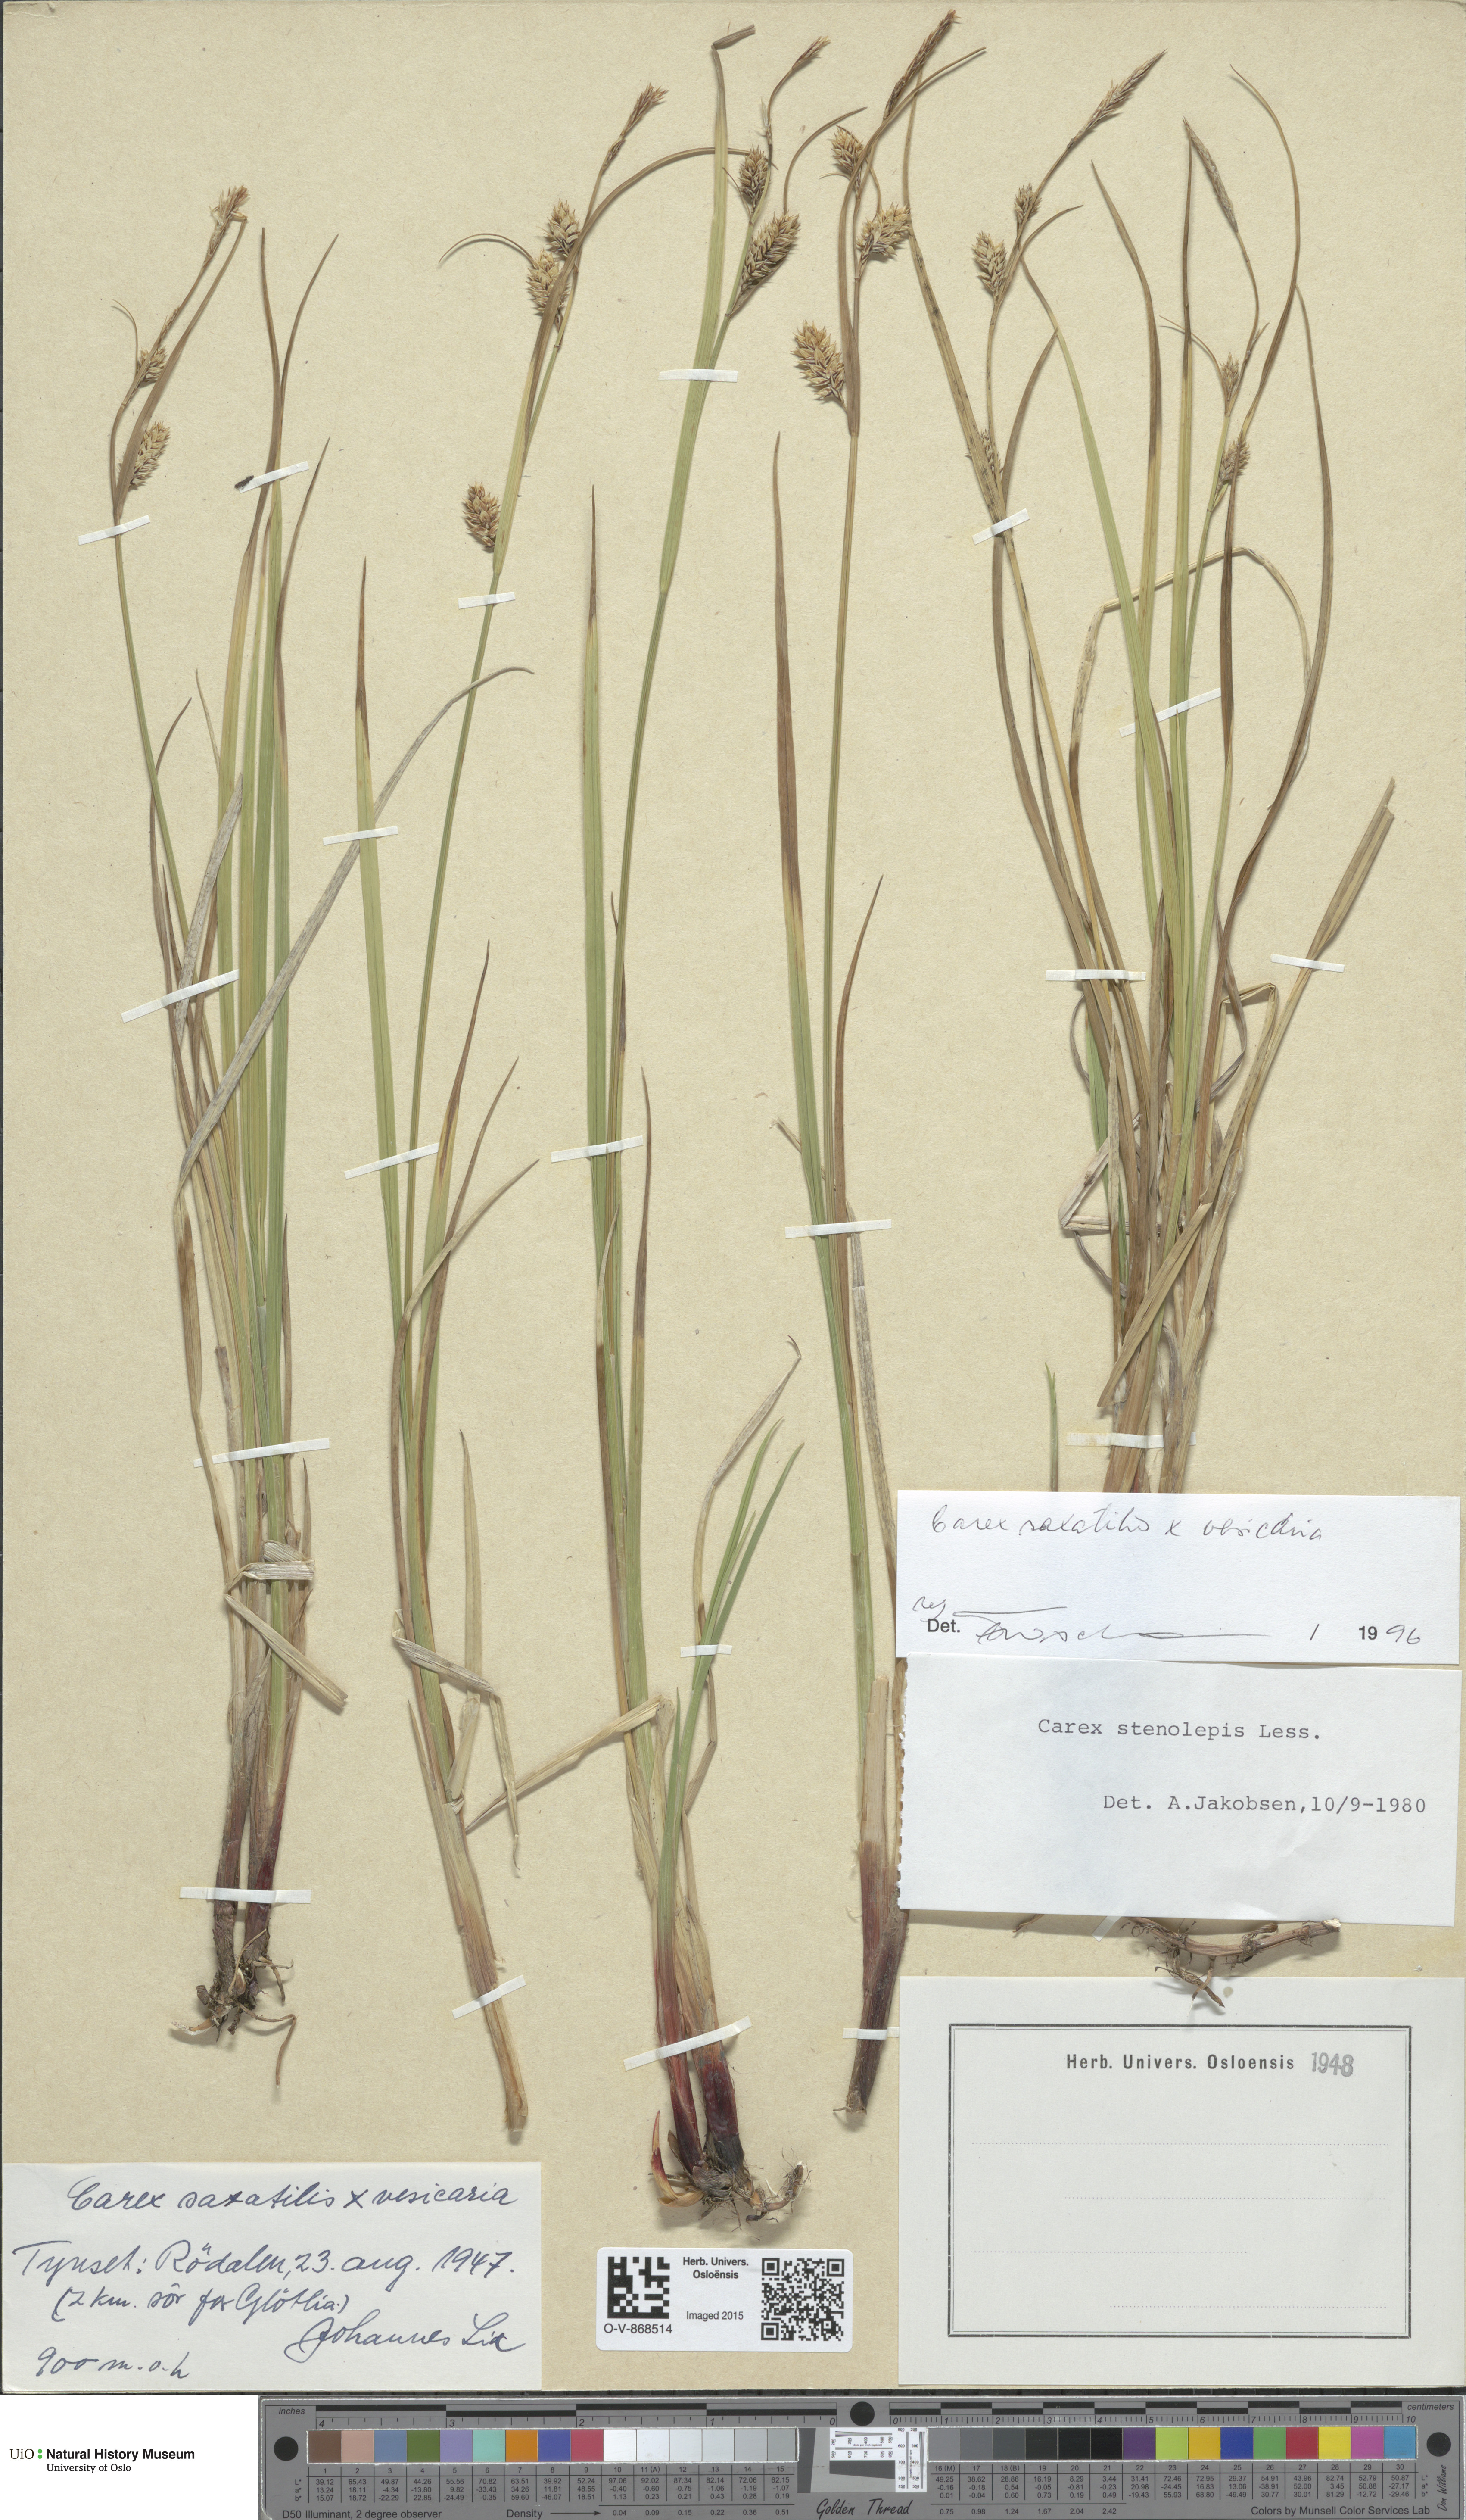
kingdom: Plantae
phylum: Tracheophyta
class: Liliopsida
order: Poales
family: Cyperaceae
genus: Carex
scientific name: Carex
